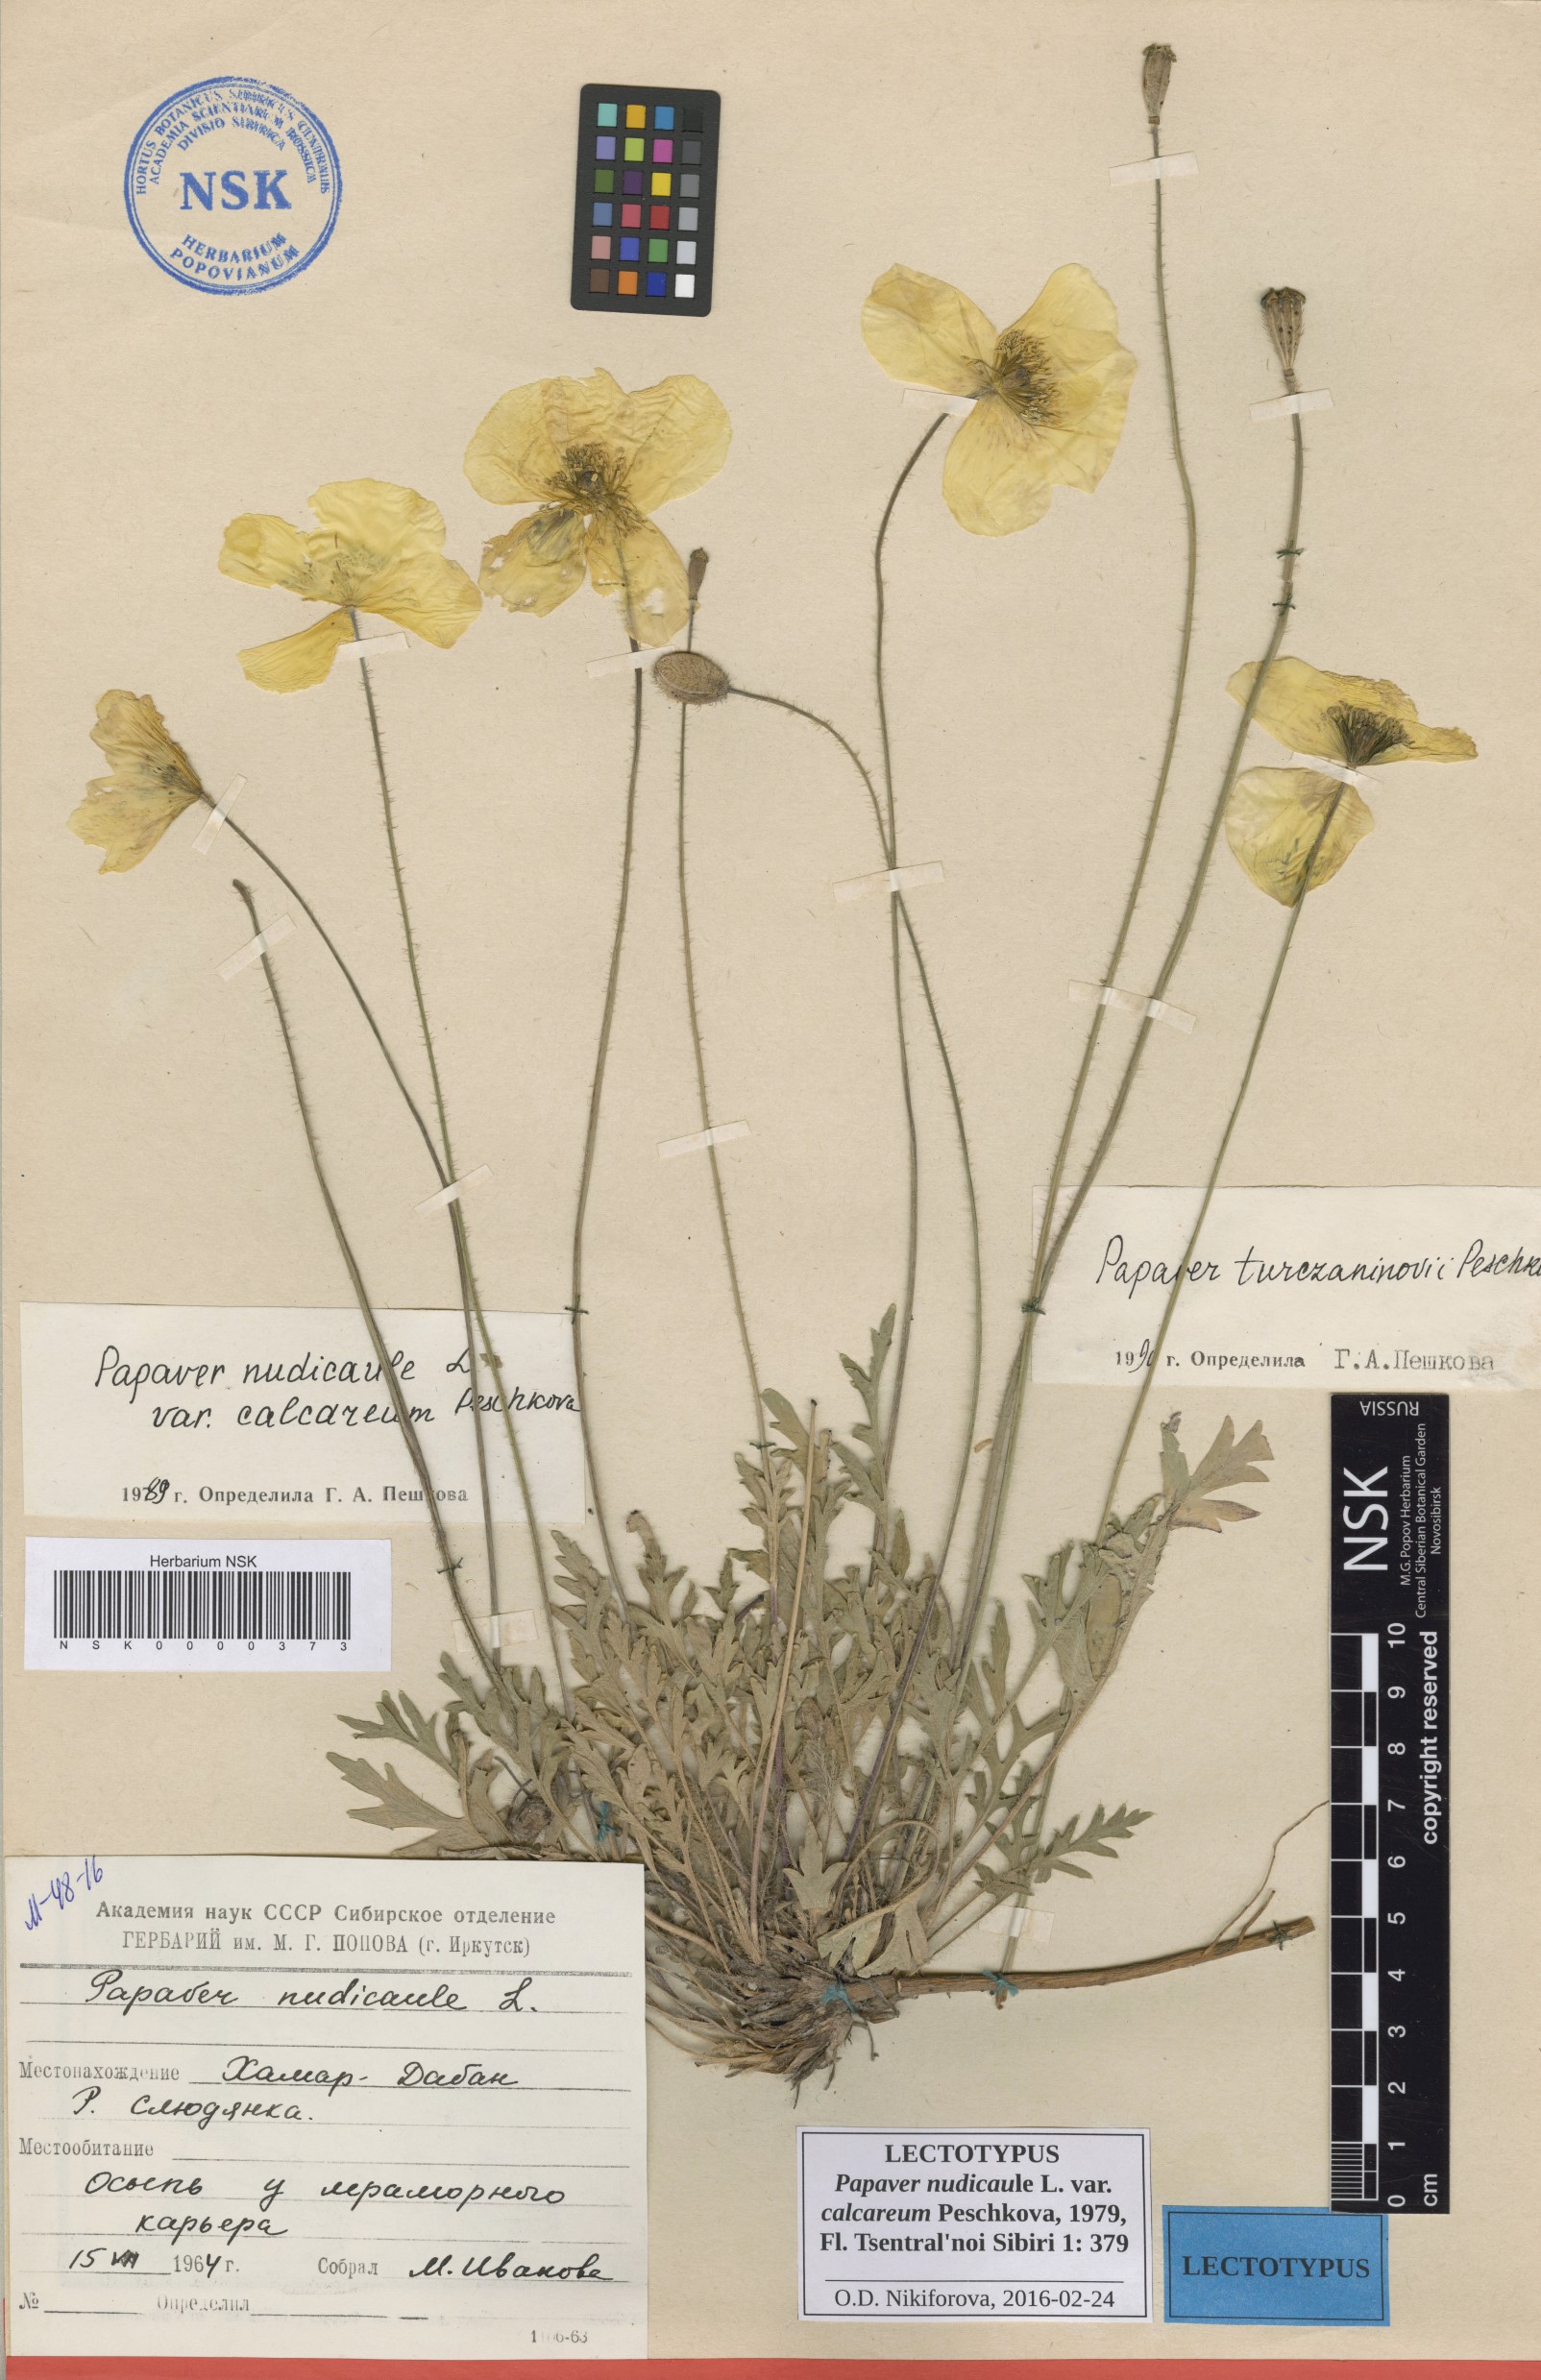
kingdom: Plantae
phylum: Tracheophyta
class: Magnoliopsida
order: Ranunculales
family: Papaveraceae
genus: Papaver
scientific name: Papaver turczaninovii
